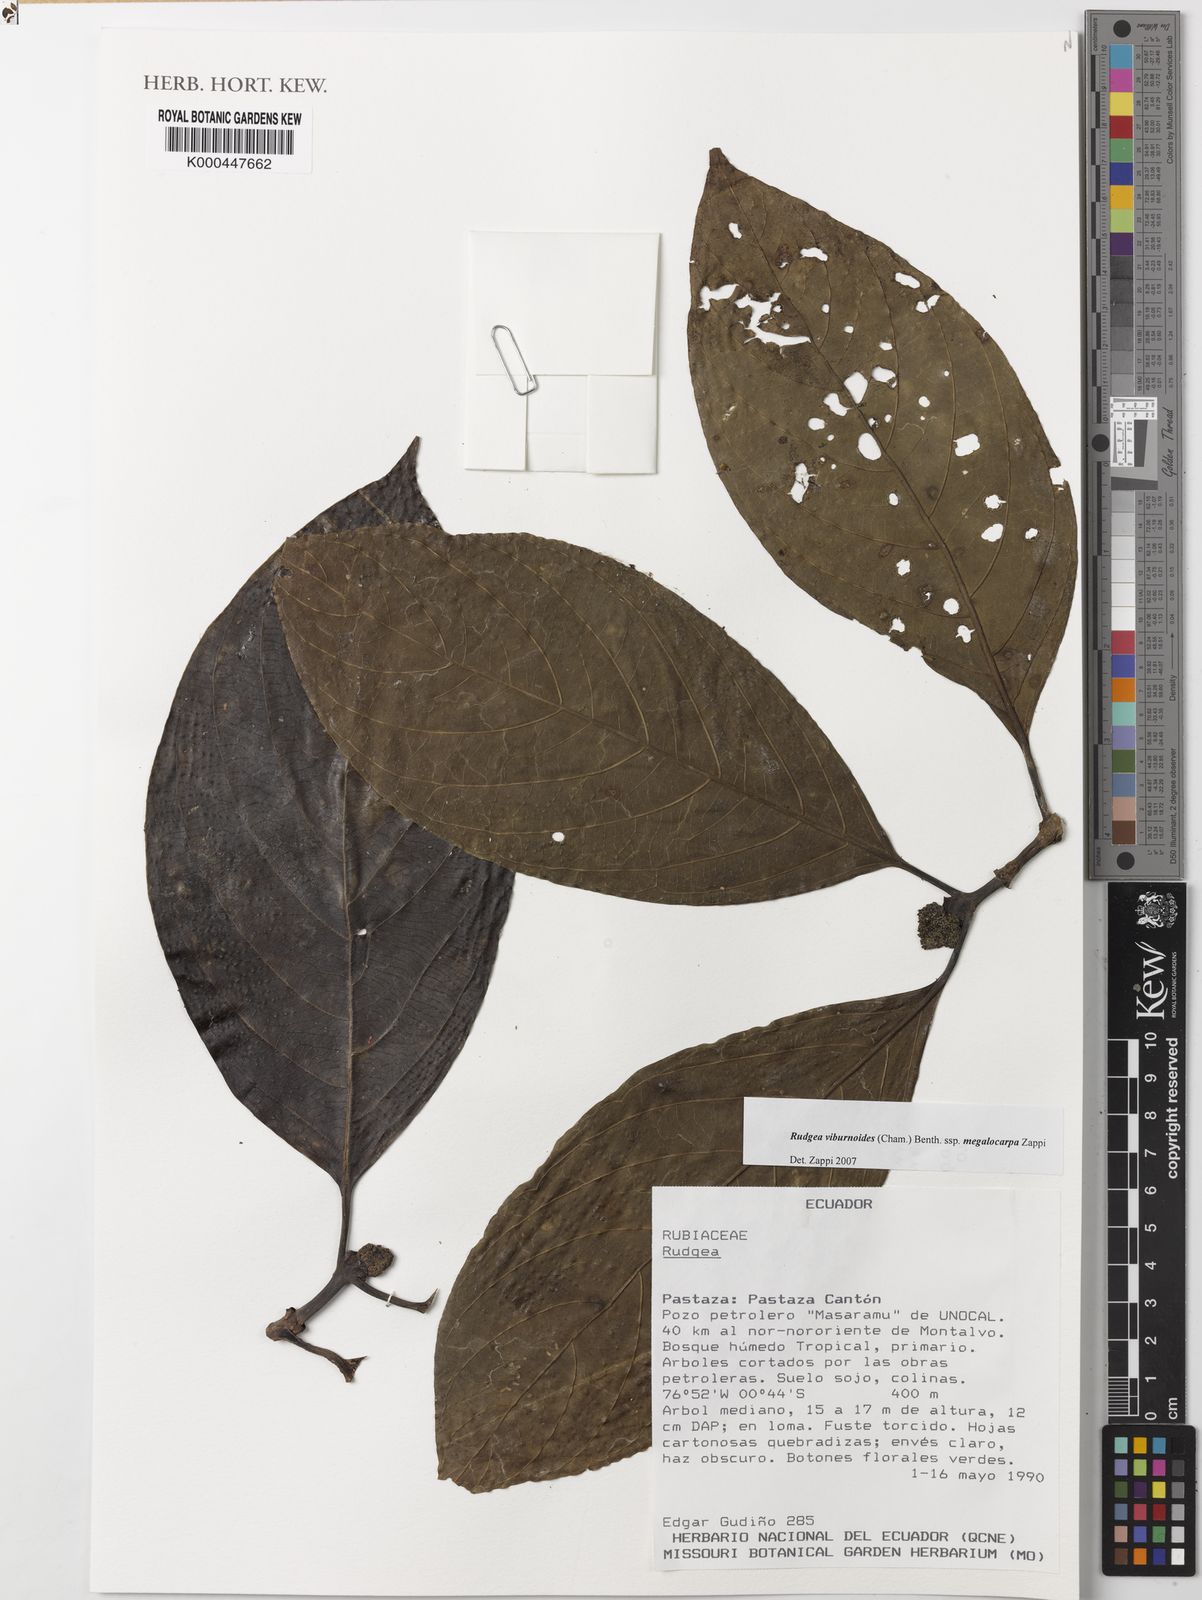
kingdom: Plantae
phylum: Tracheophyta
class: Magnoliopsida
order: Gentianales
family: Rubiaceae
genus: Rudgea
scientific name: Rudgea viburnoides
